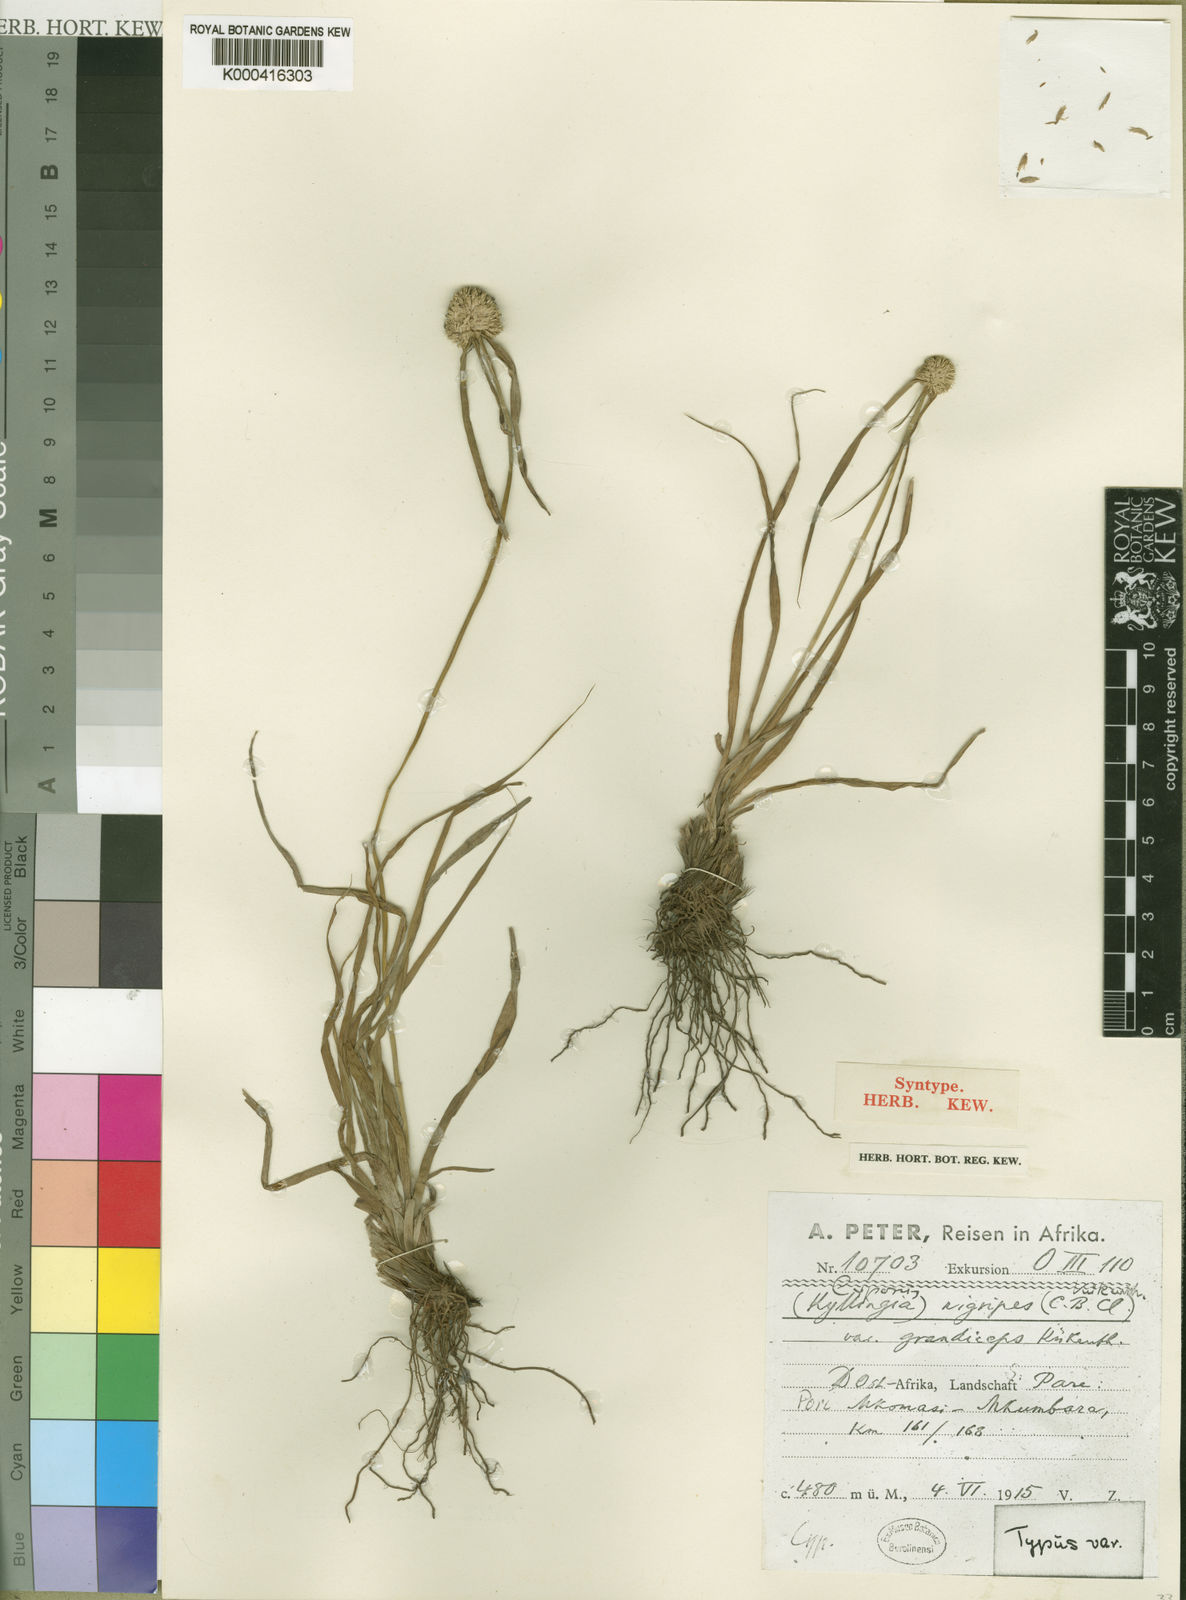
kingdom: Plantae
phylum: Tracheophyta
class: Liliopsida
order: Poales
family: Cyperaceae
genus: Cyperus
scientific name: Cyperus nigripes
